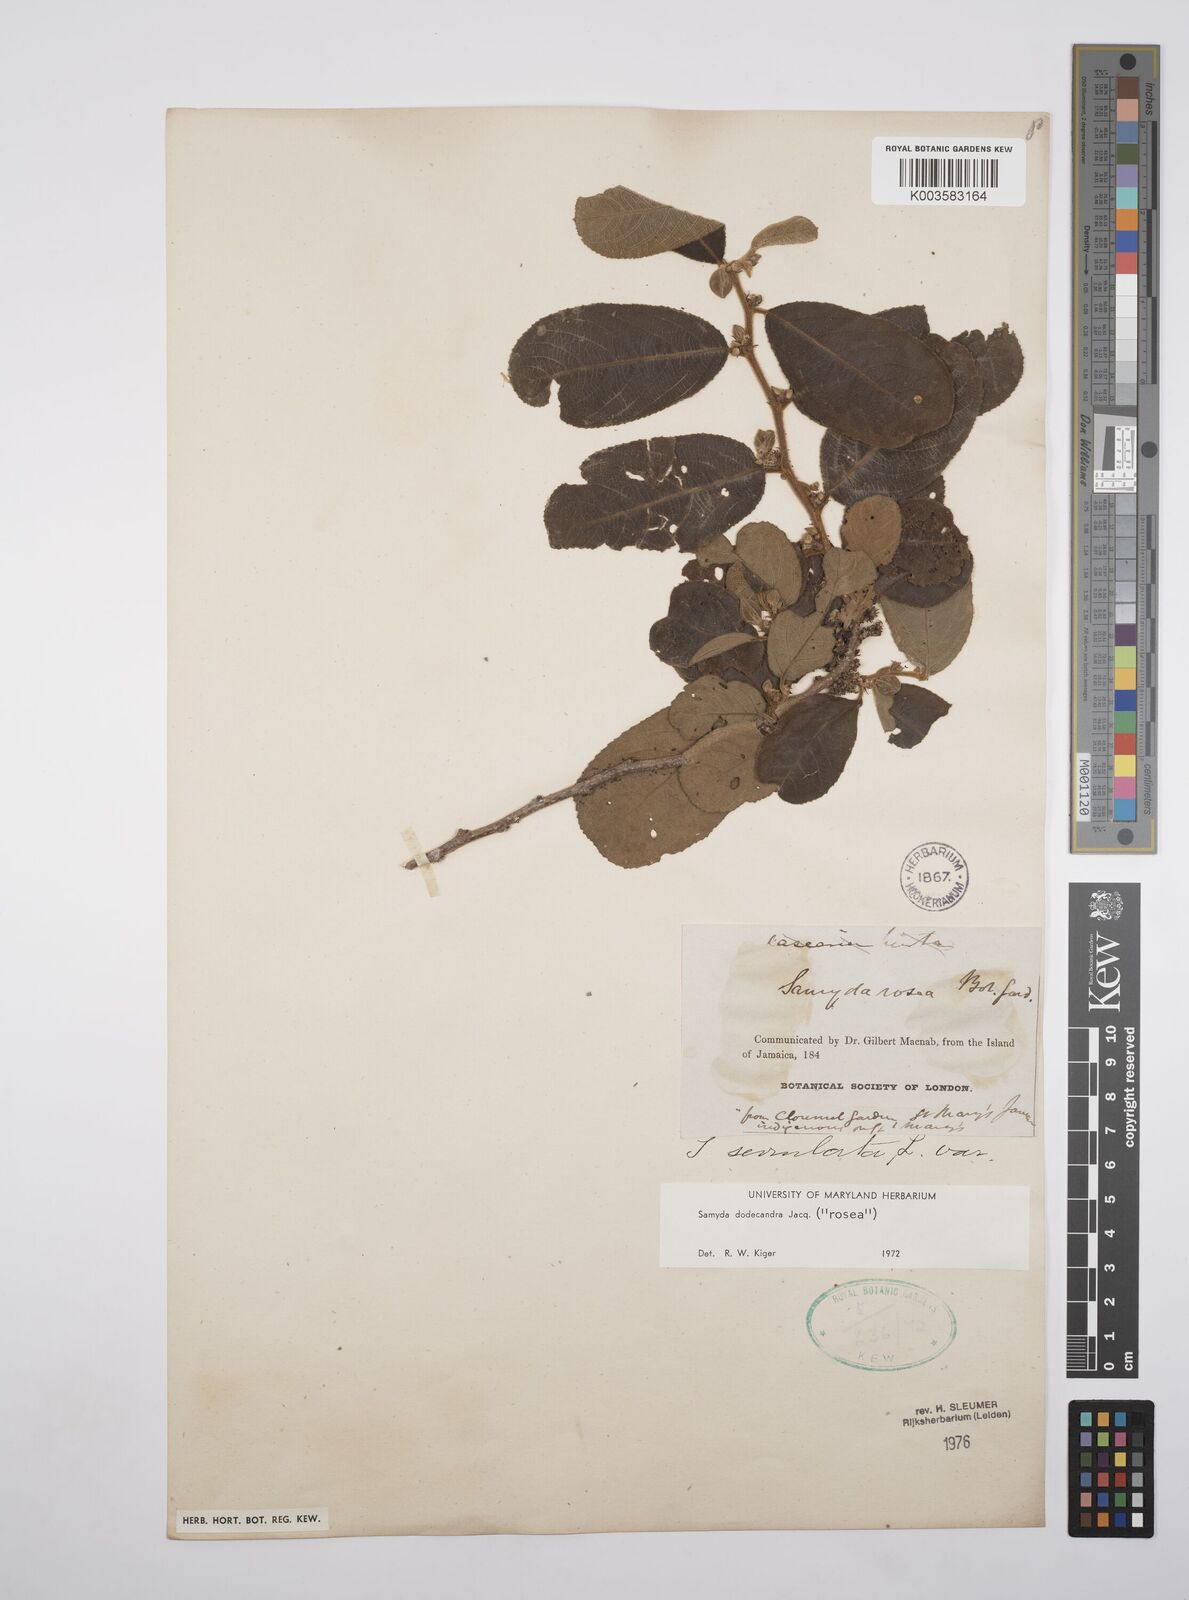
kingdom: Plantae
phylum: Tracheophyta
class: Magnoliopsida
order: Malpighiales
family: Salicaceae
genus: Casearia
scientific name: Casearia dodecandra
